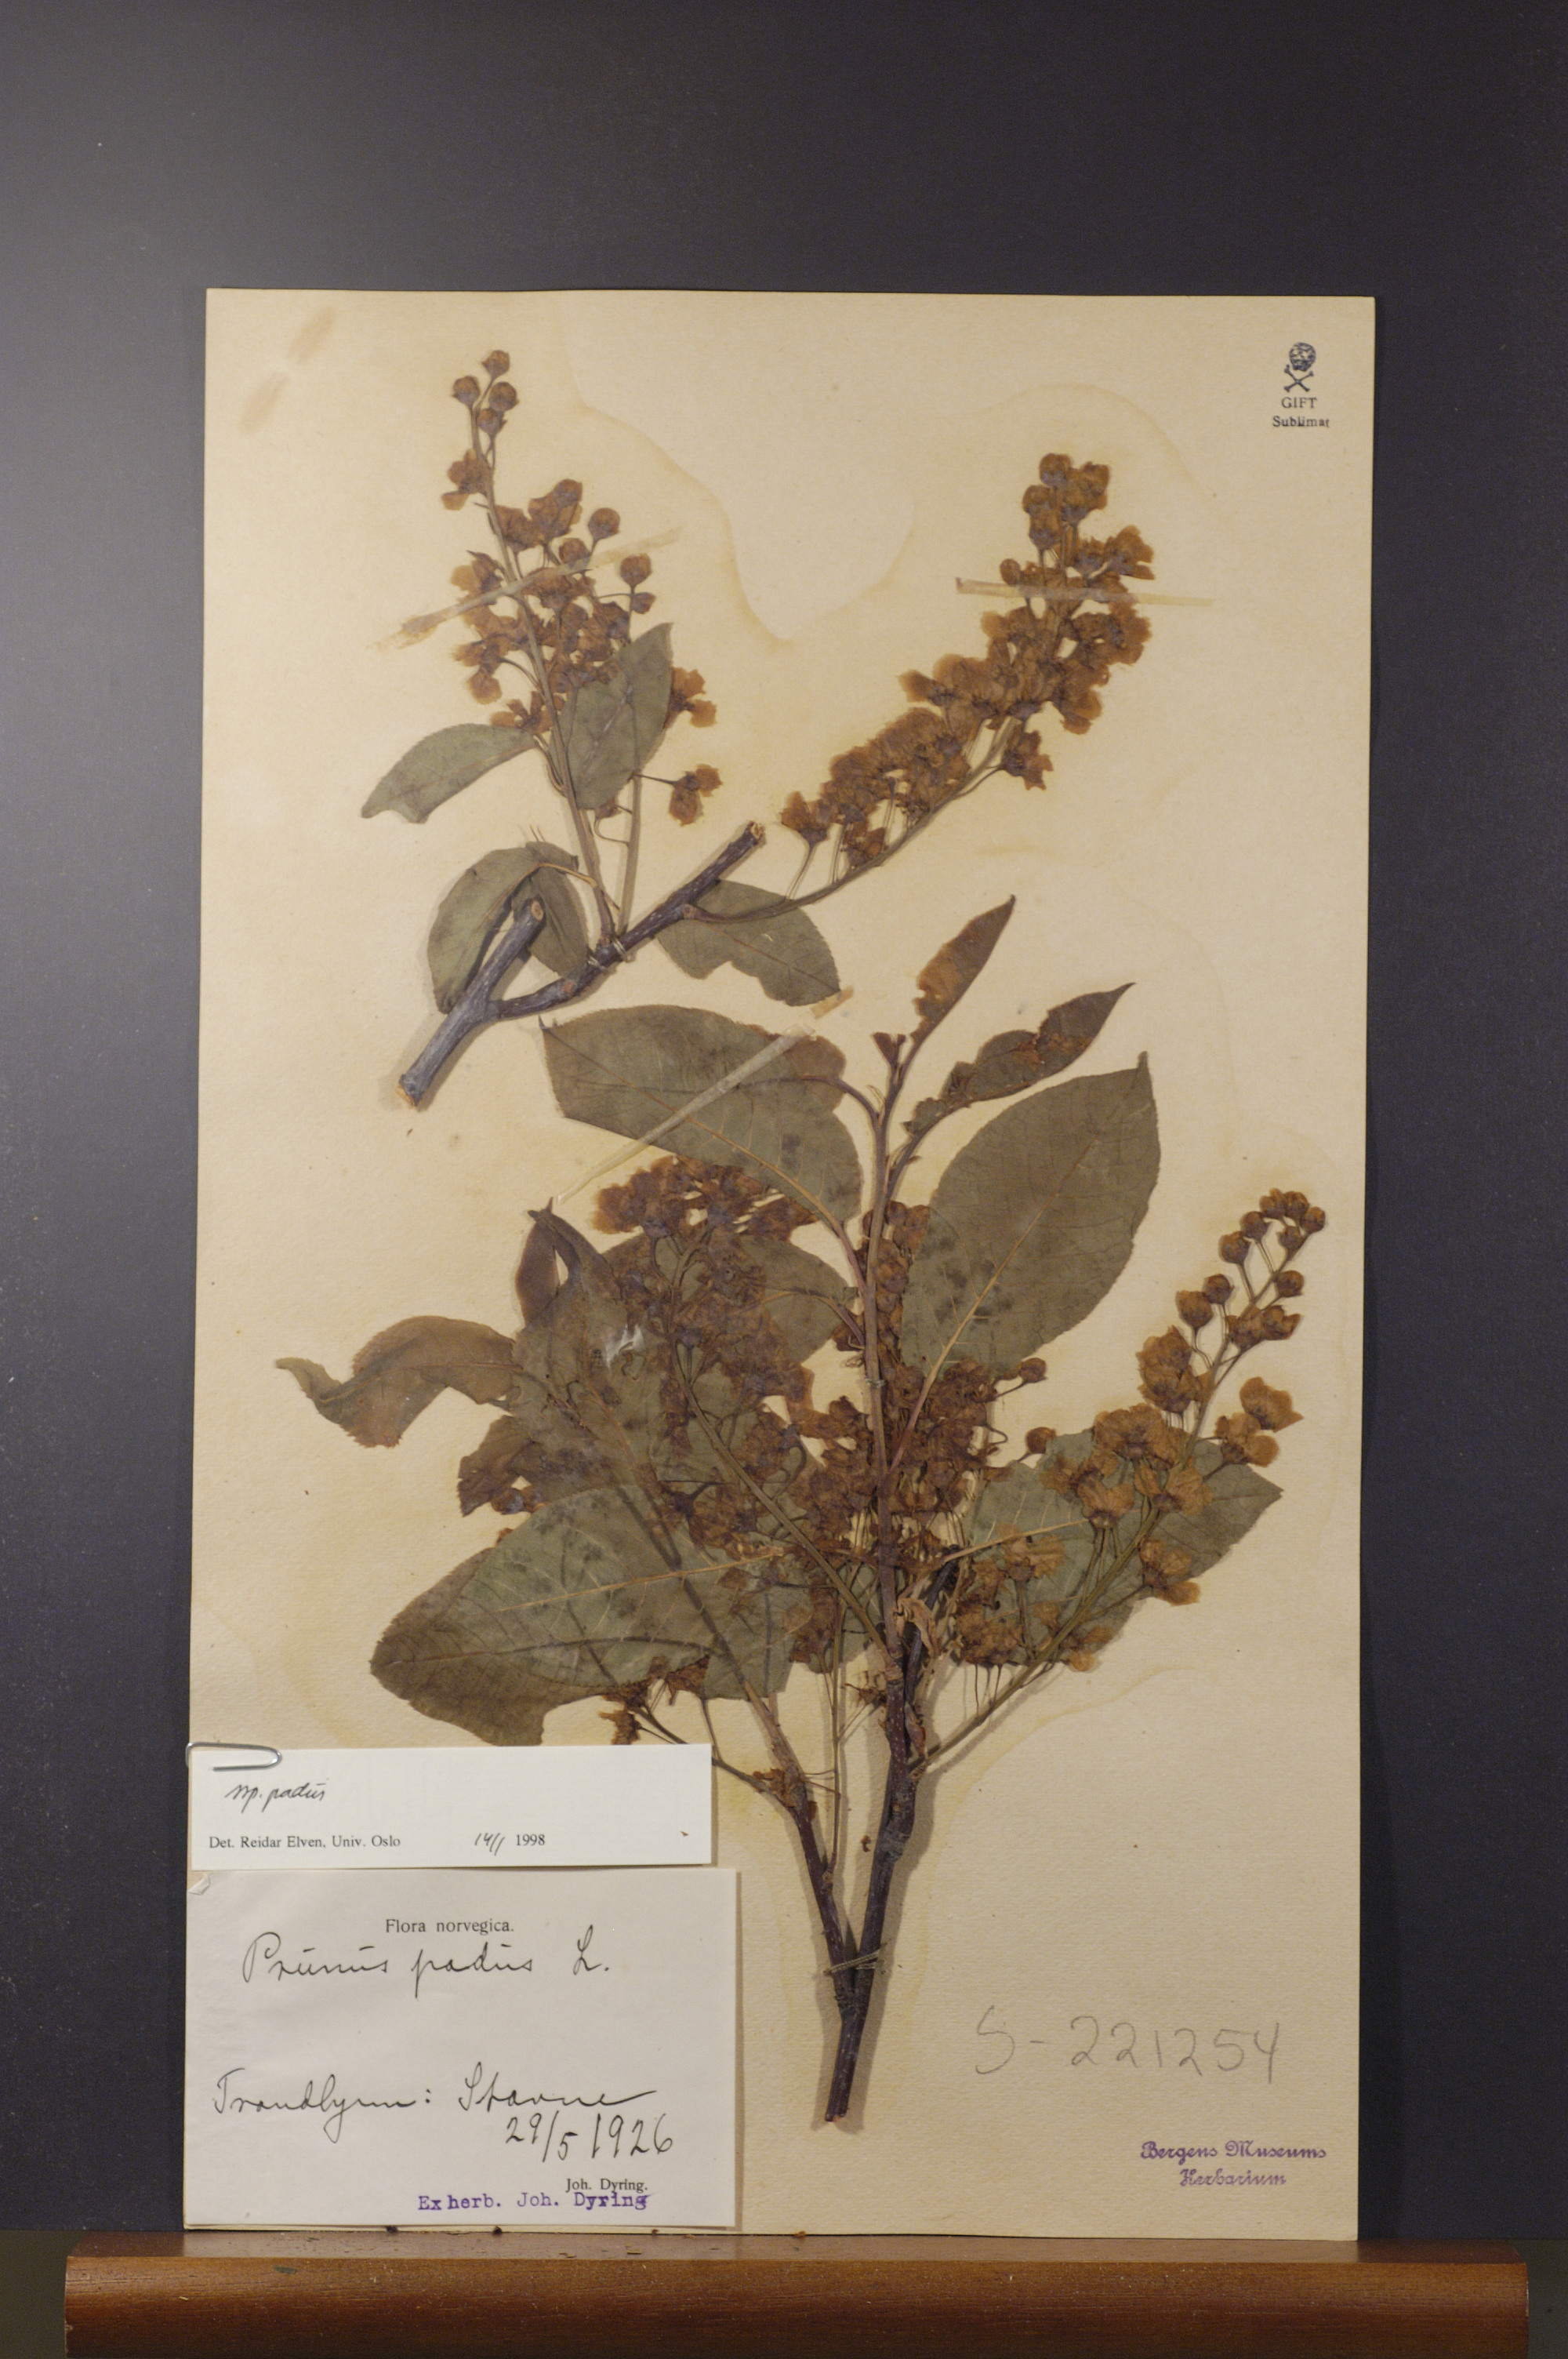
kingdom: Plantae
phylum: Tracheophyta
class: Magnoliopsida
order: Rosales
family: Rosaceae
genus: Prunus
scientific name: Prunus padus
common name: Bird cherry
